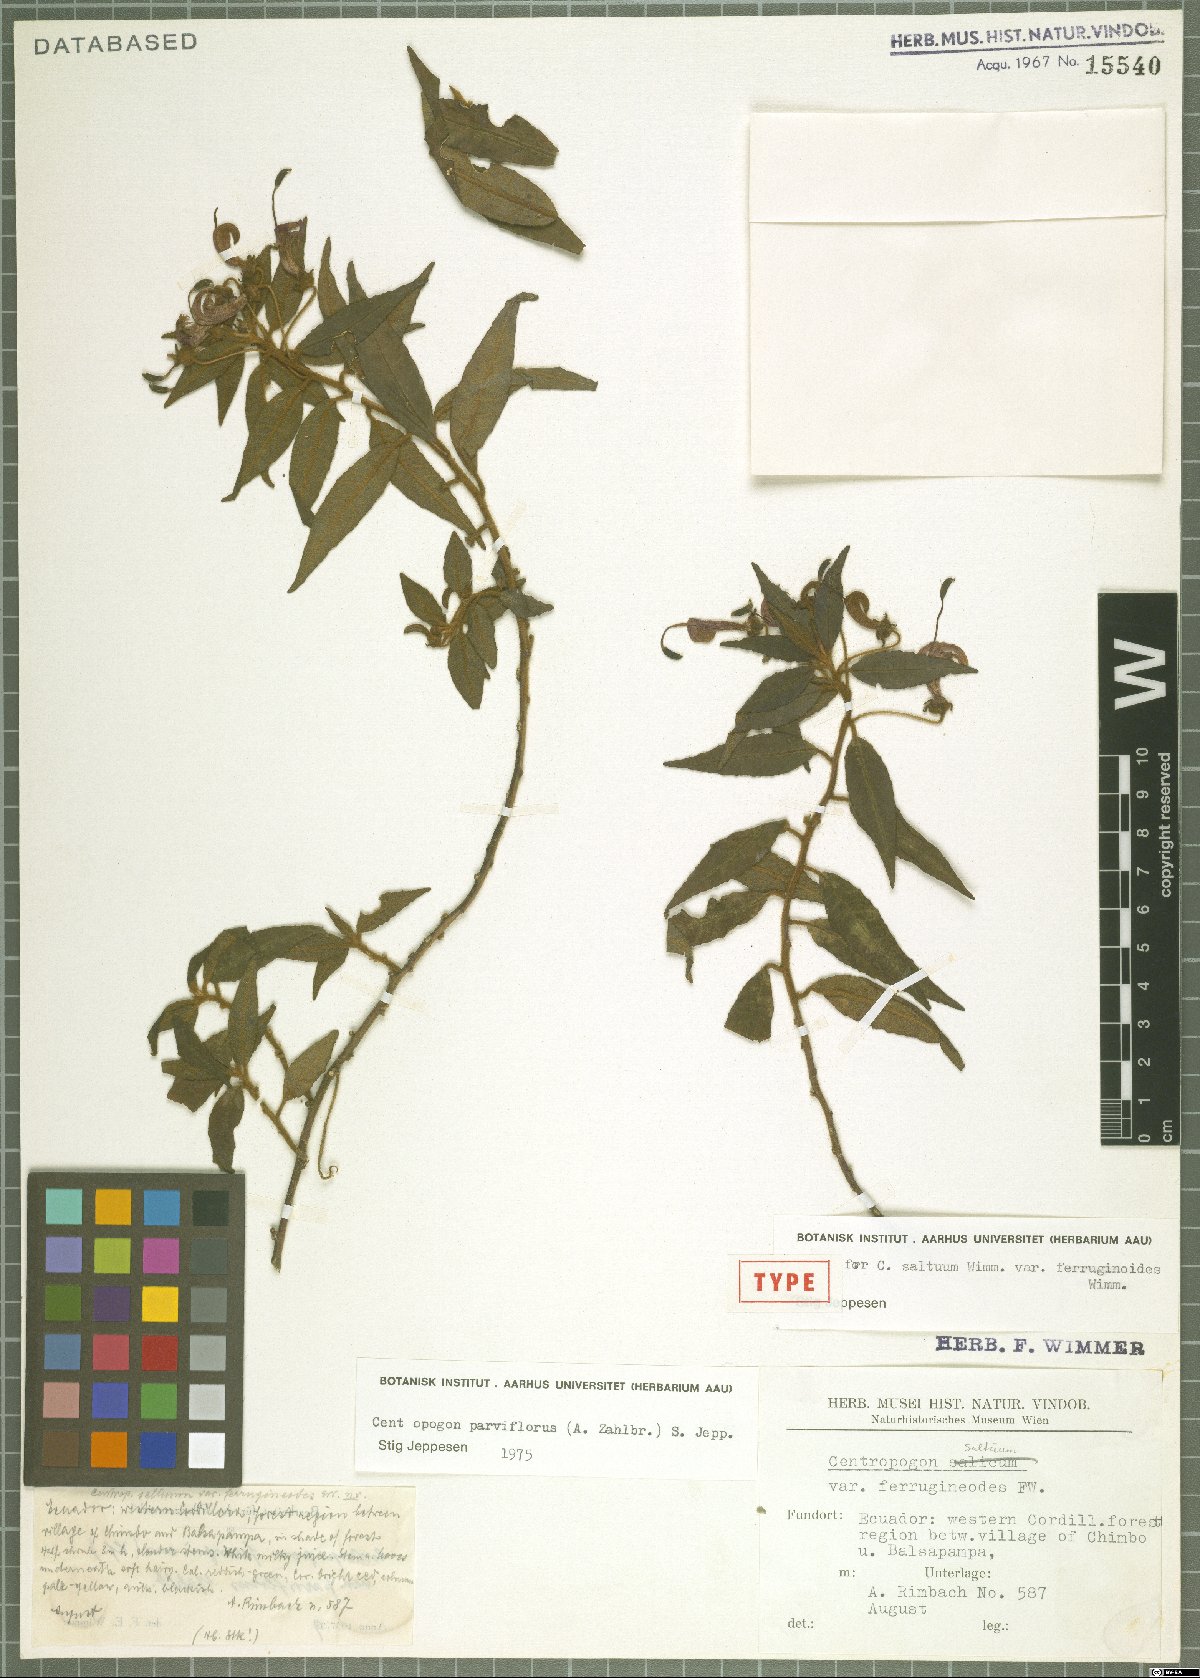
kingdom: Plantae
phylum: Tracheophyta
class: Magnoliopsida
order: Asterales
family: Campanulaceae
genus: Centropogon
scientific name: Centropogon parviflorus
